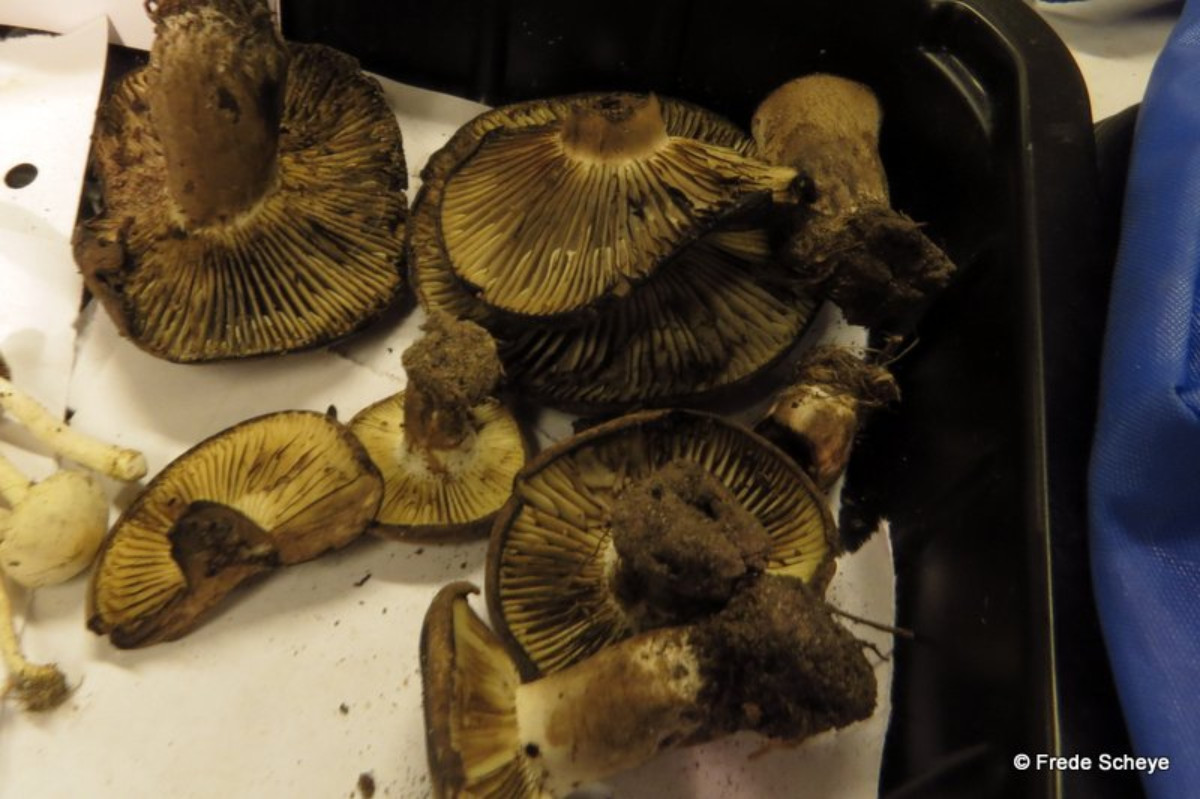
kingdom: Fungi
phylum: Basidiomycota
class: Agaricomycetes
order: Russulales
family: Russulaceae
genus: Russula
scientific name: Russula adusta
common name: sværtende skørhat
